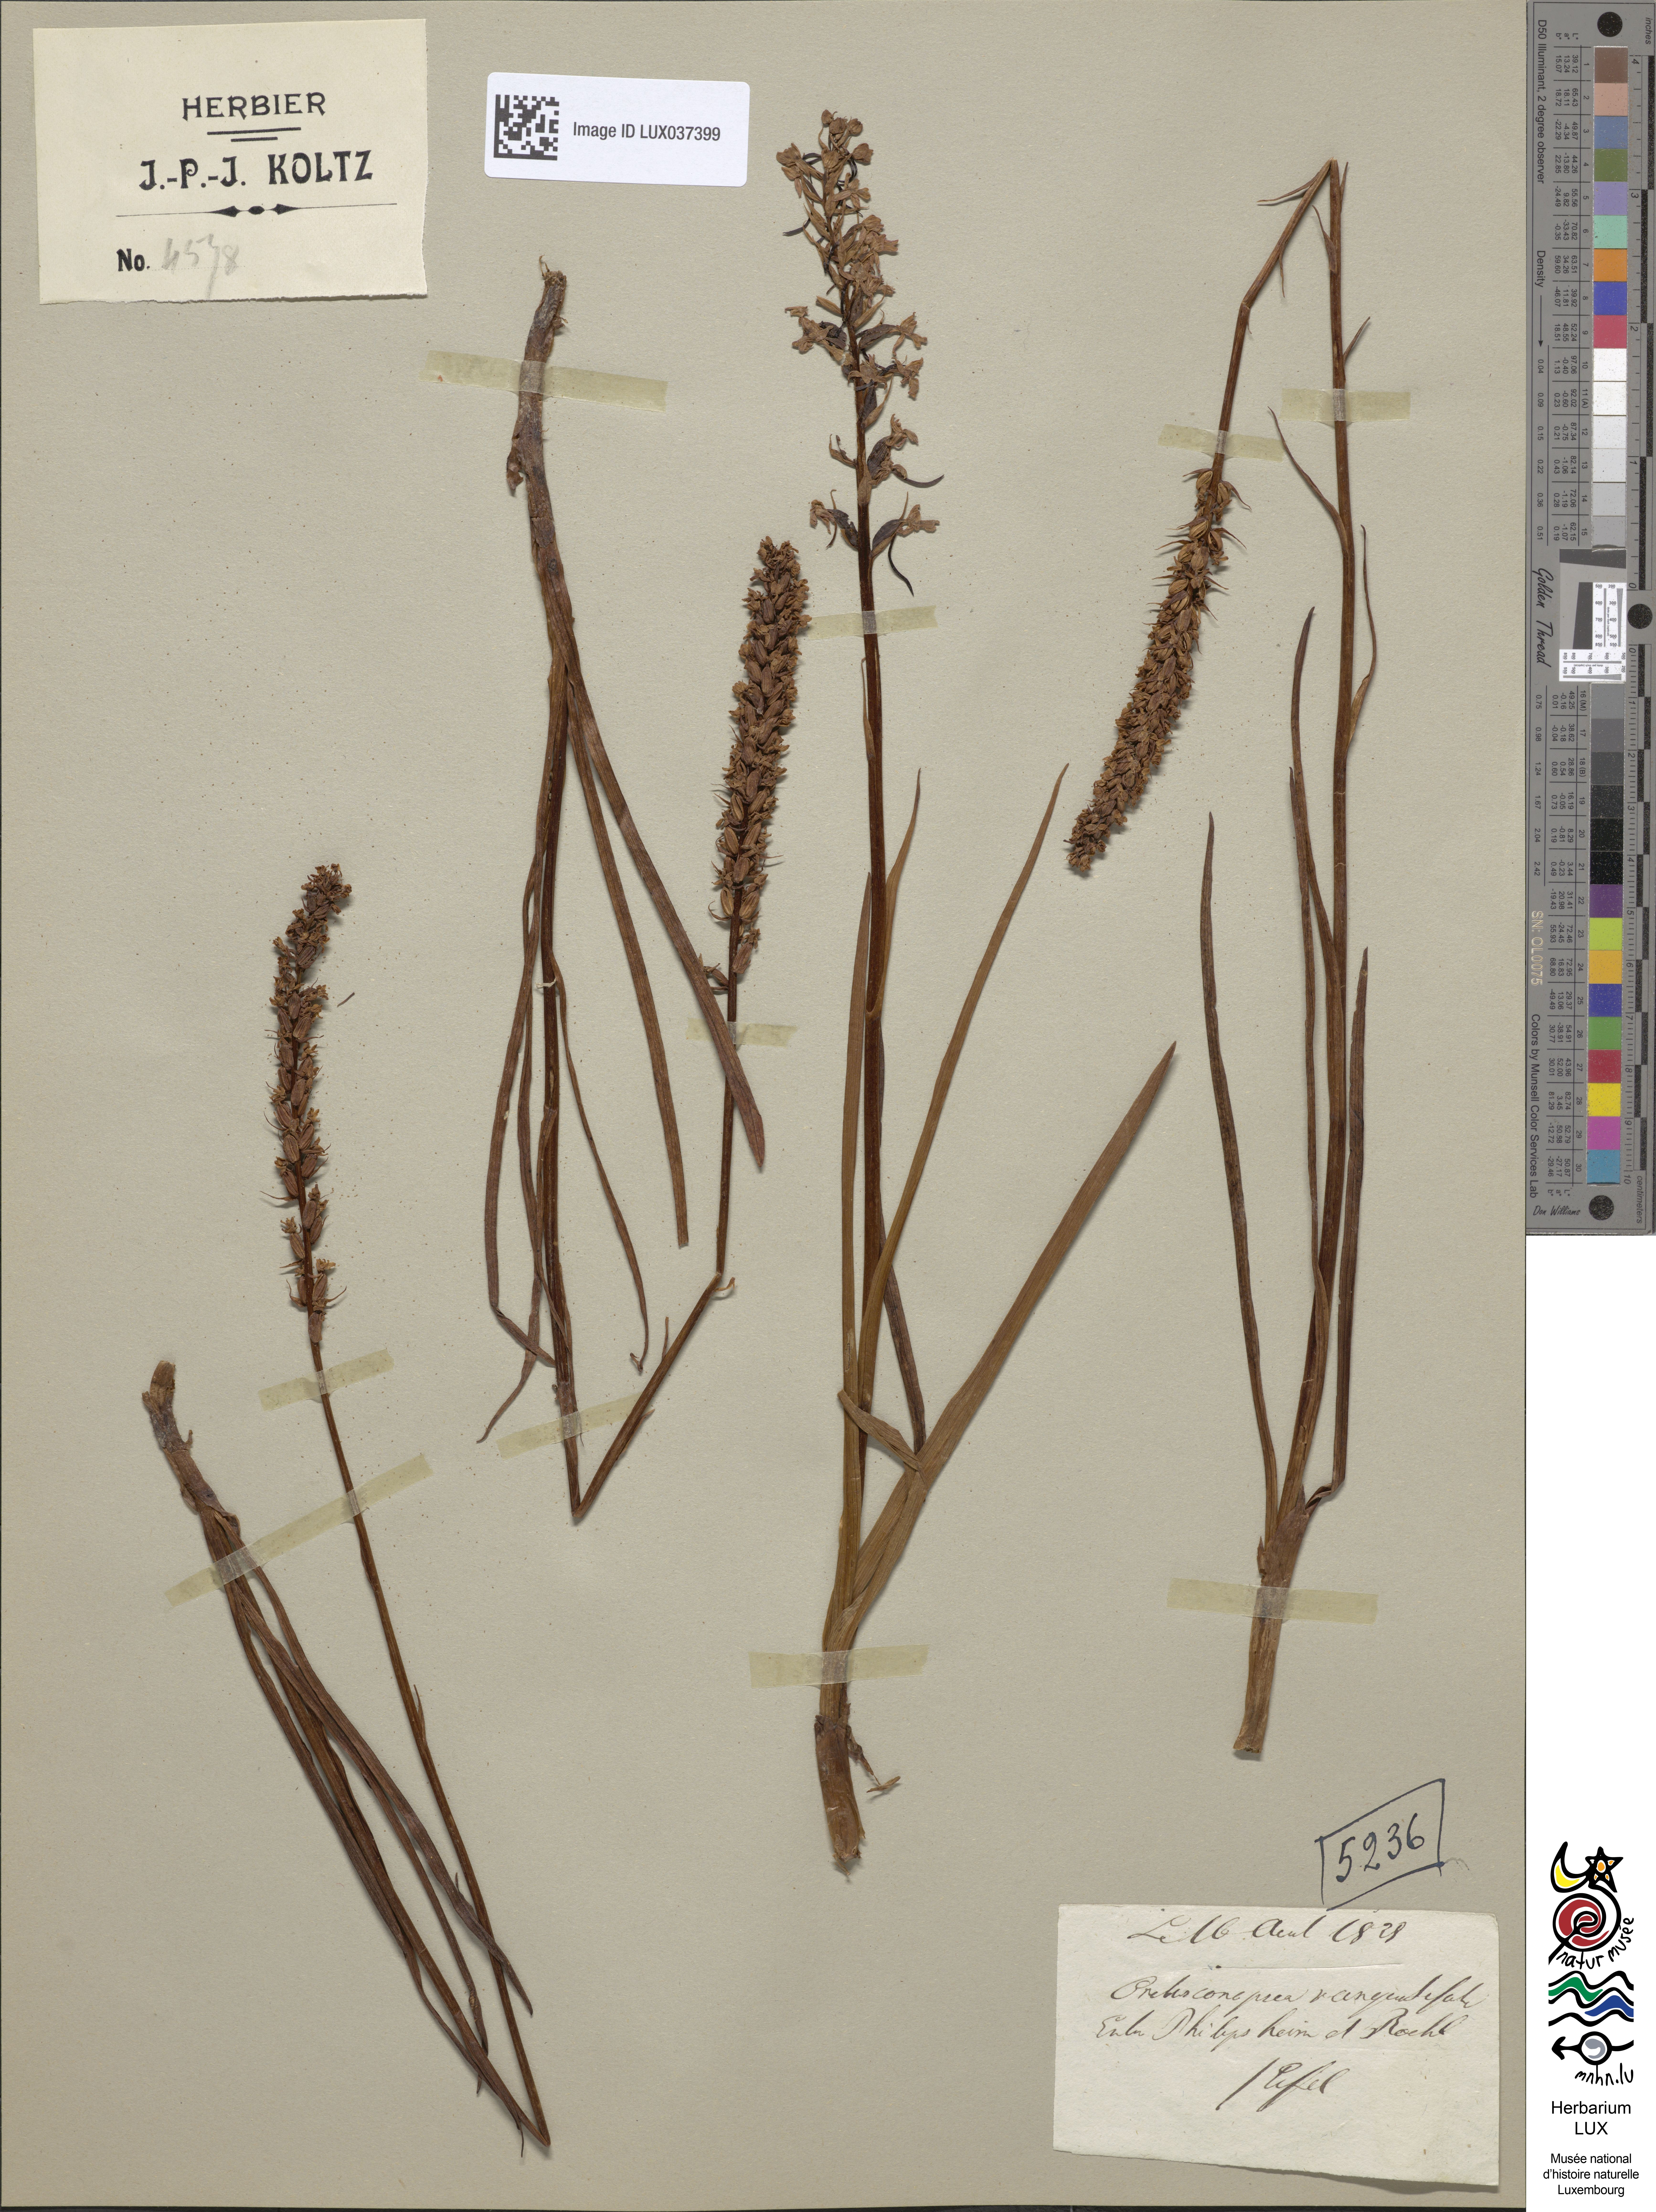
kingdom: Plantae
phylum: Tracheophyta
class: Liliopsida
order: Asparagales
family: Orchidaceae
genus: Gymnadenia
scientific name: Gymnadenia conopsea
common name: Fragrant orchid
